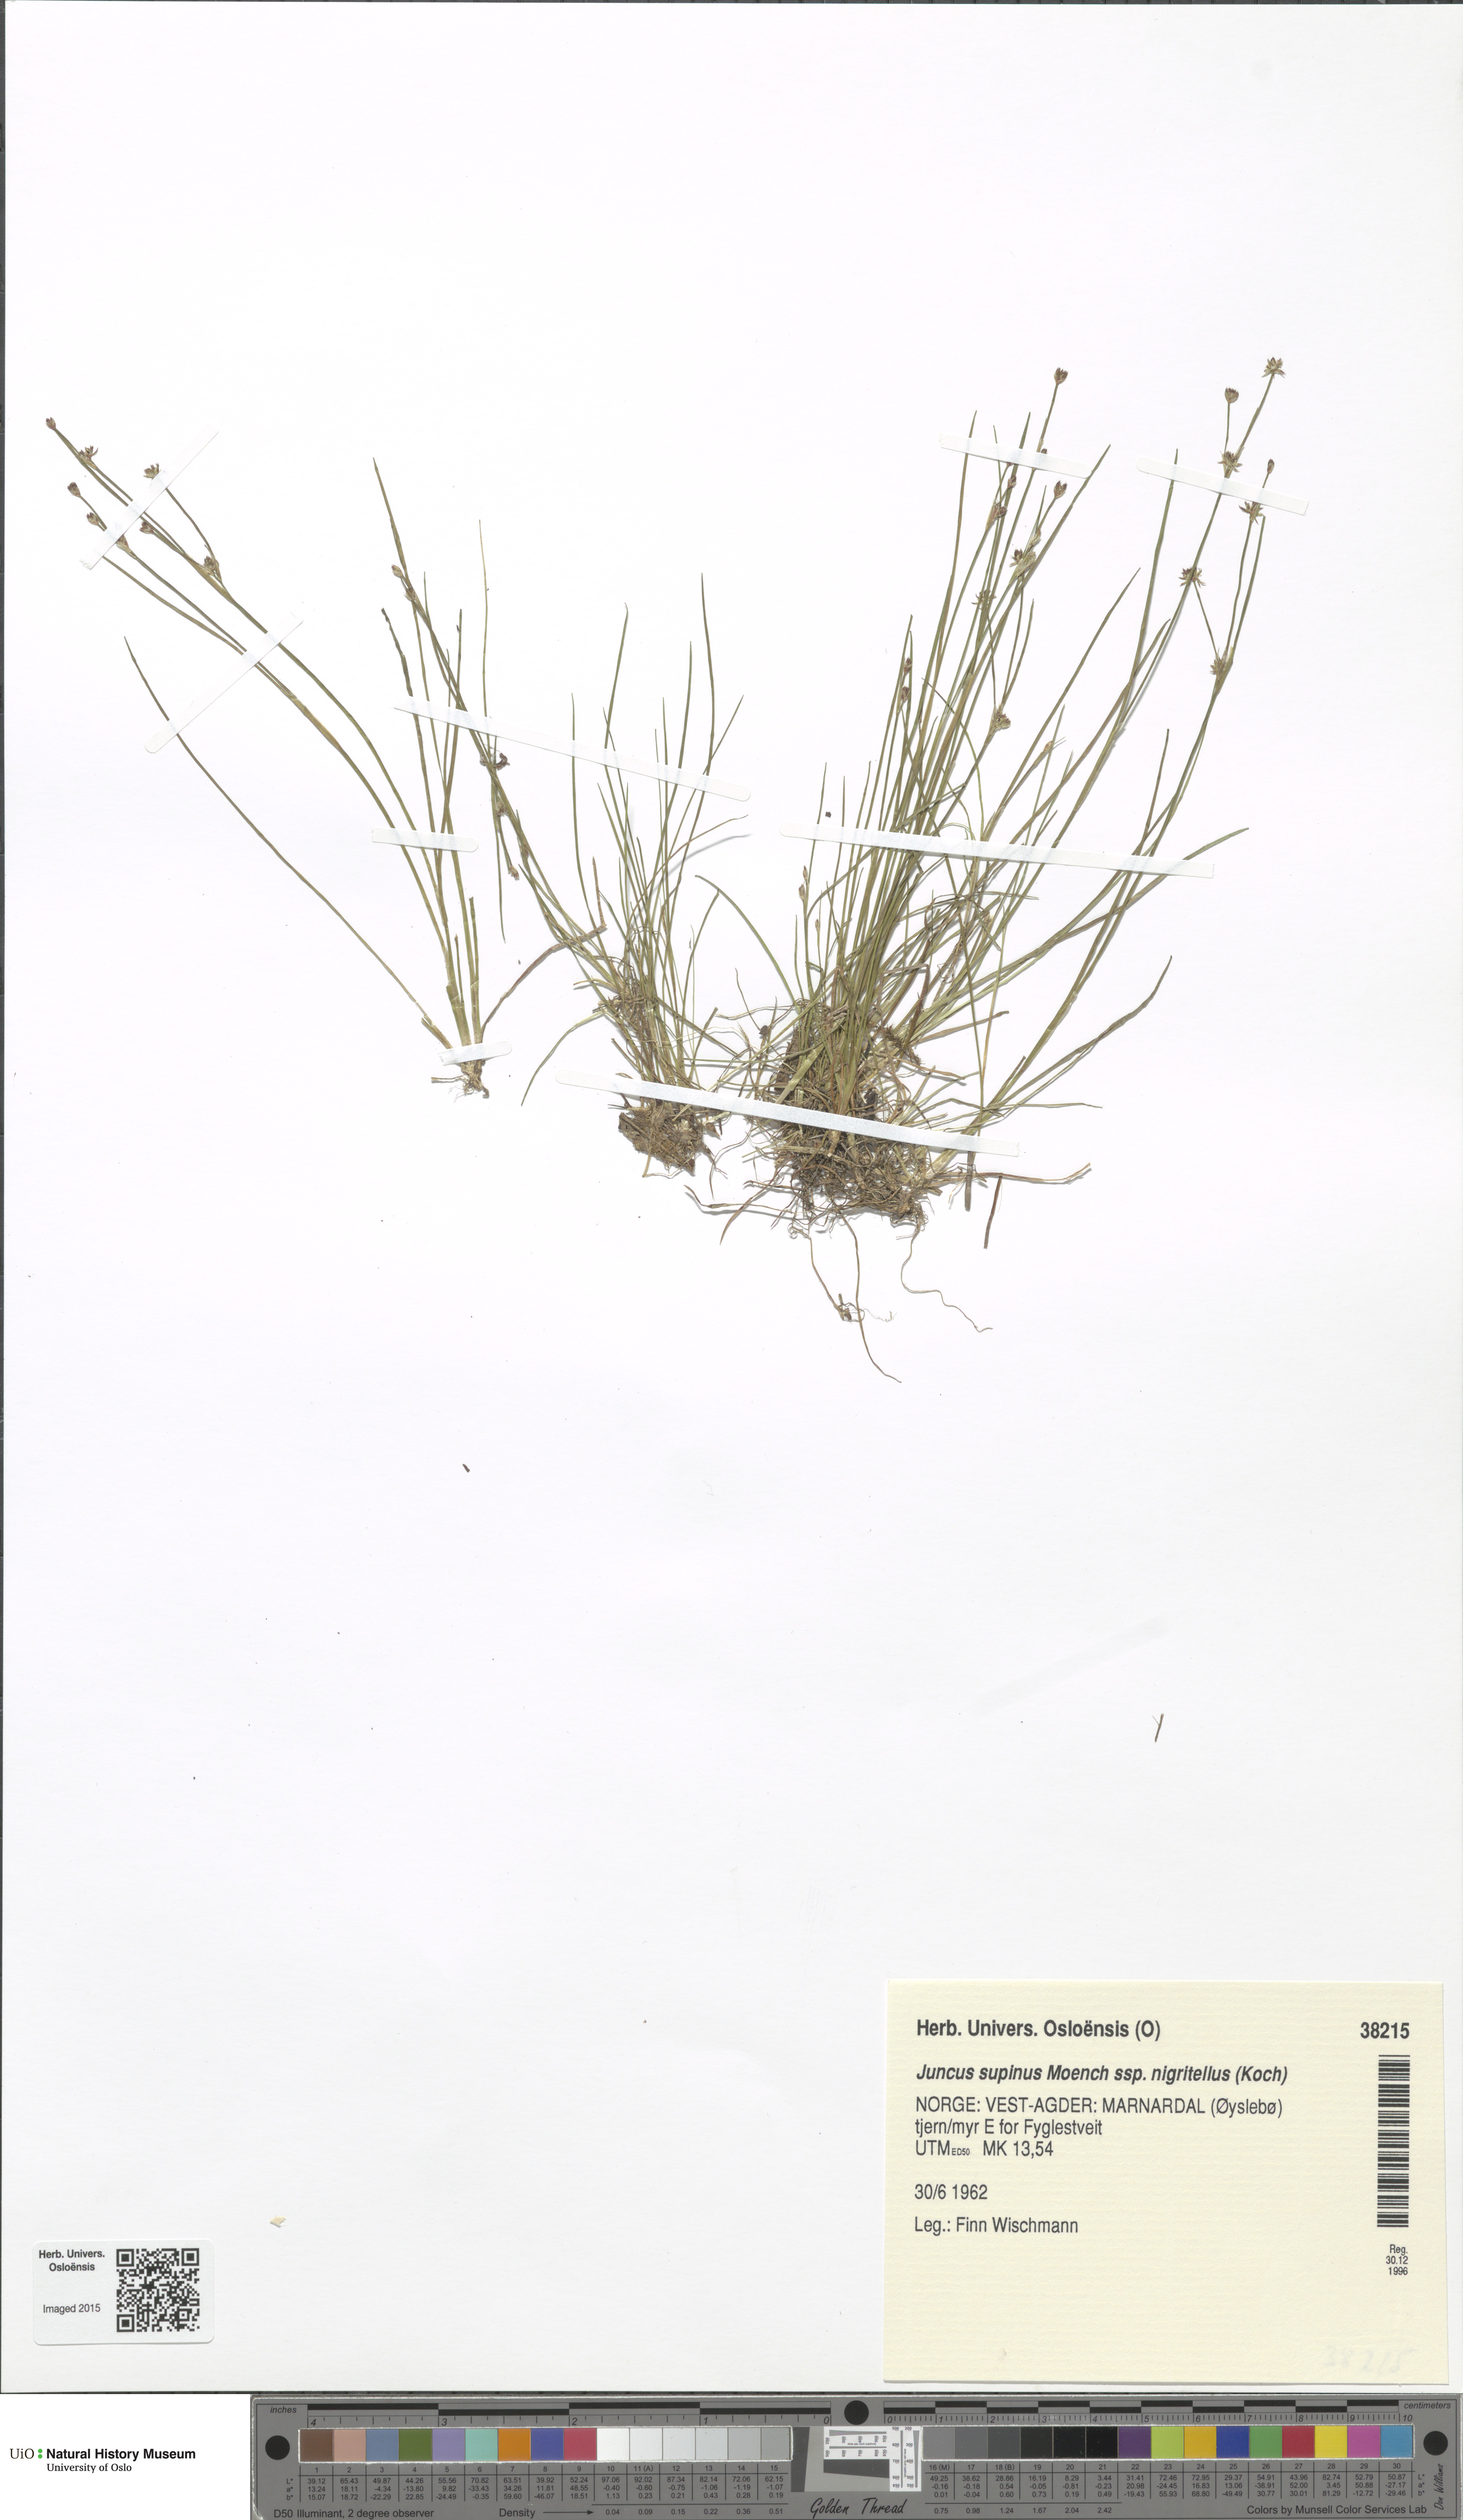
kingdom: Plantae
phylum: Tracheophyta
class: Liliopsida
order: Poales
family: Juncaceae
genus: Juncus
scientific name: Juncus bulbosus
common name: Bulbous rush
